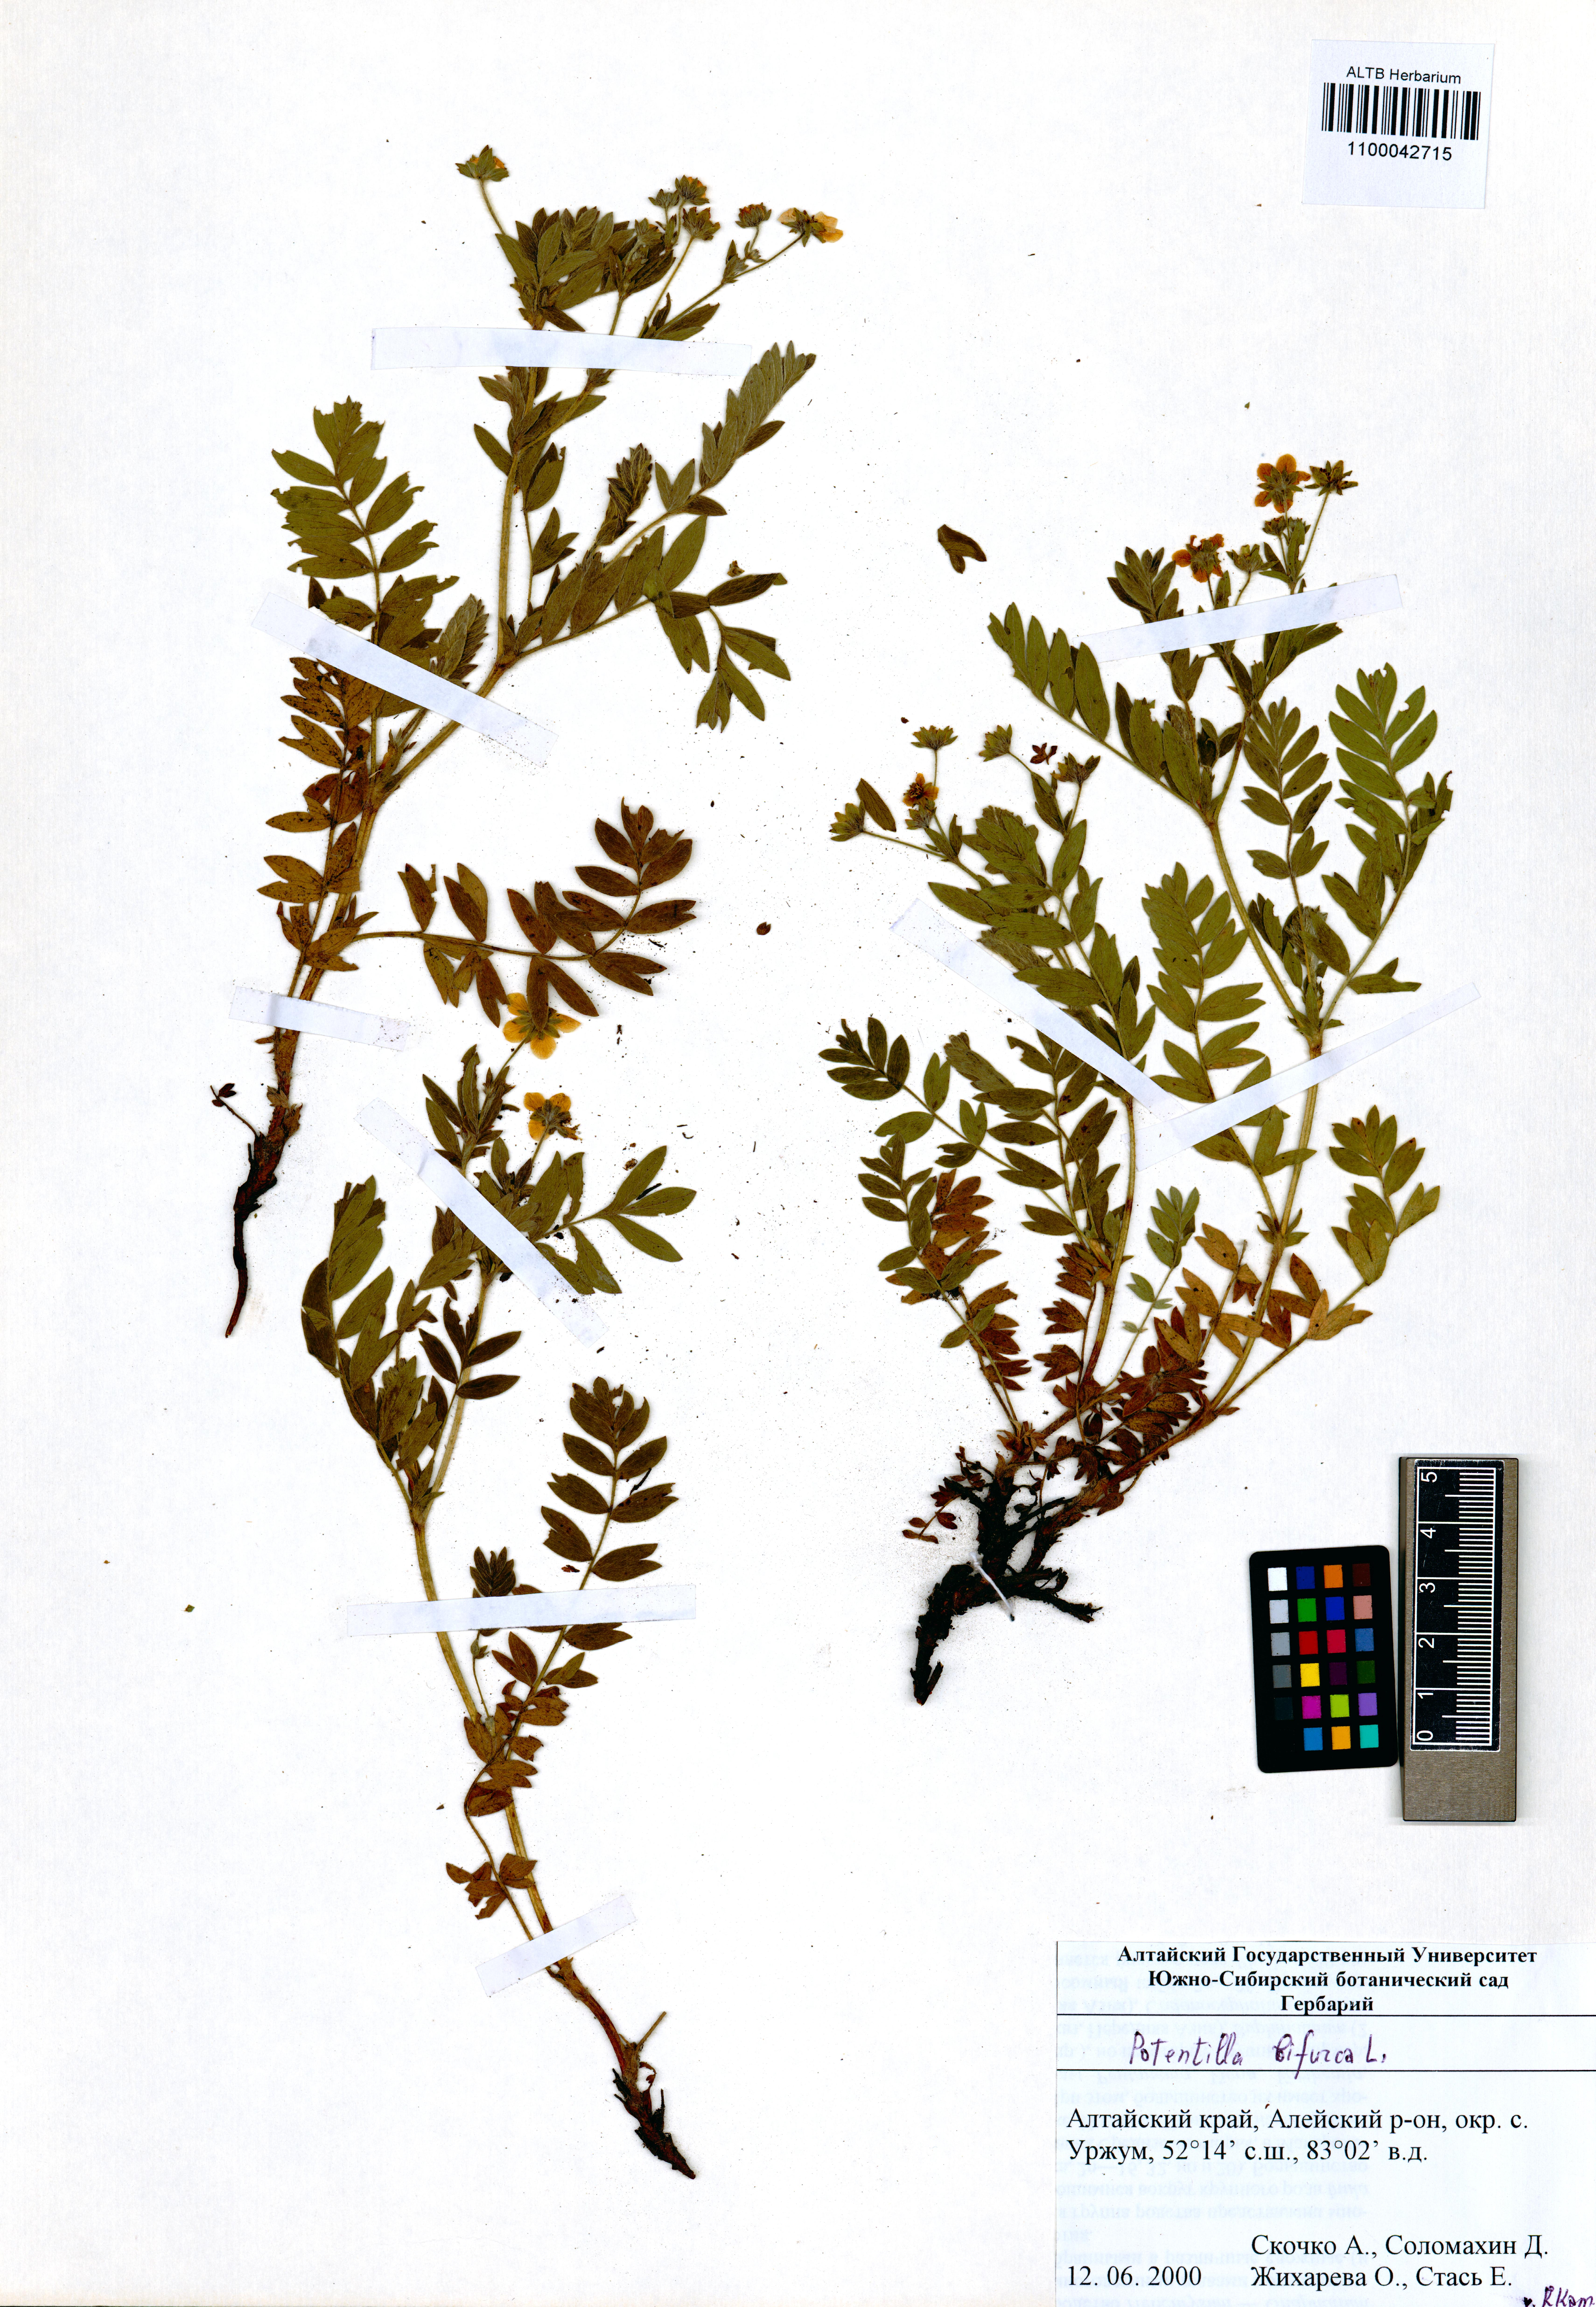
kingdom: Plantae
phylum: Tracheophyta
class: Magnoliopsida
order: Rosales
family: Rosaceae
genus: Sibbaldianthe
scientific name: Sibbaldianthe bifurca
